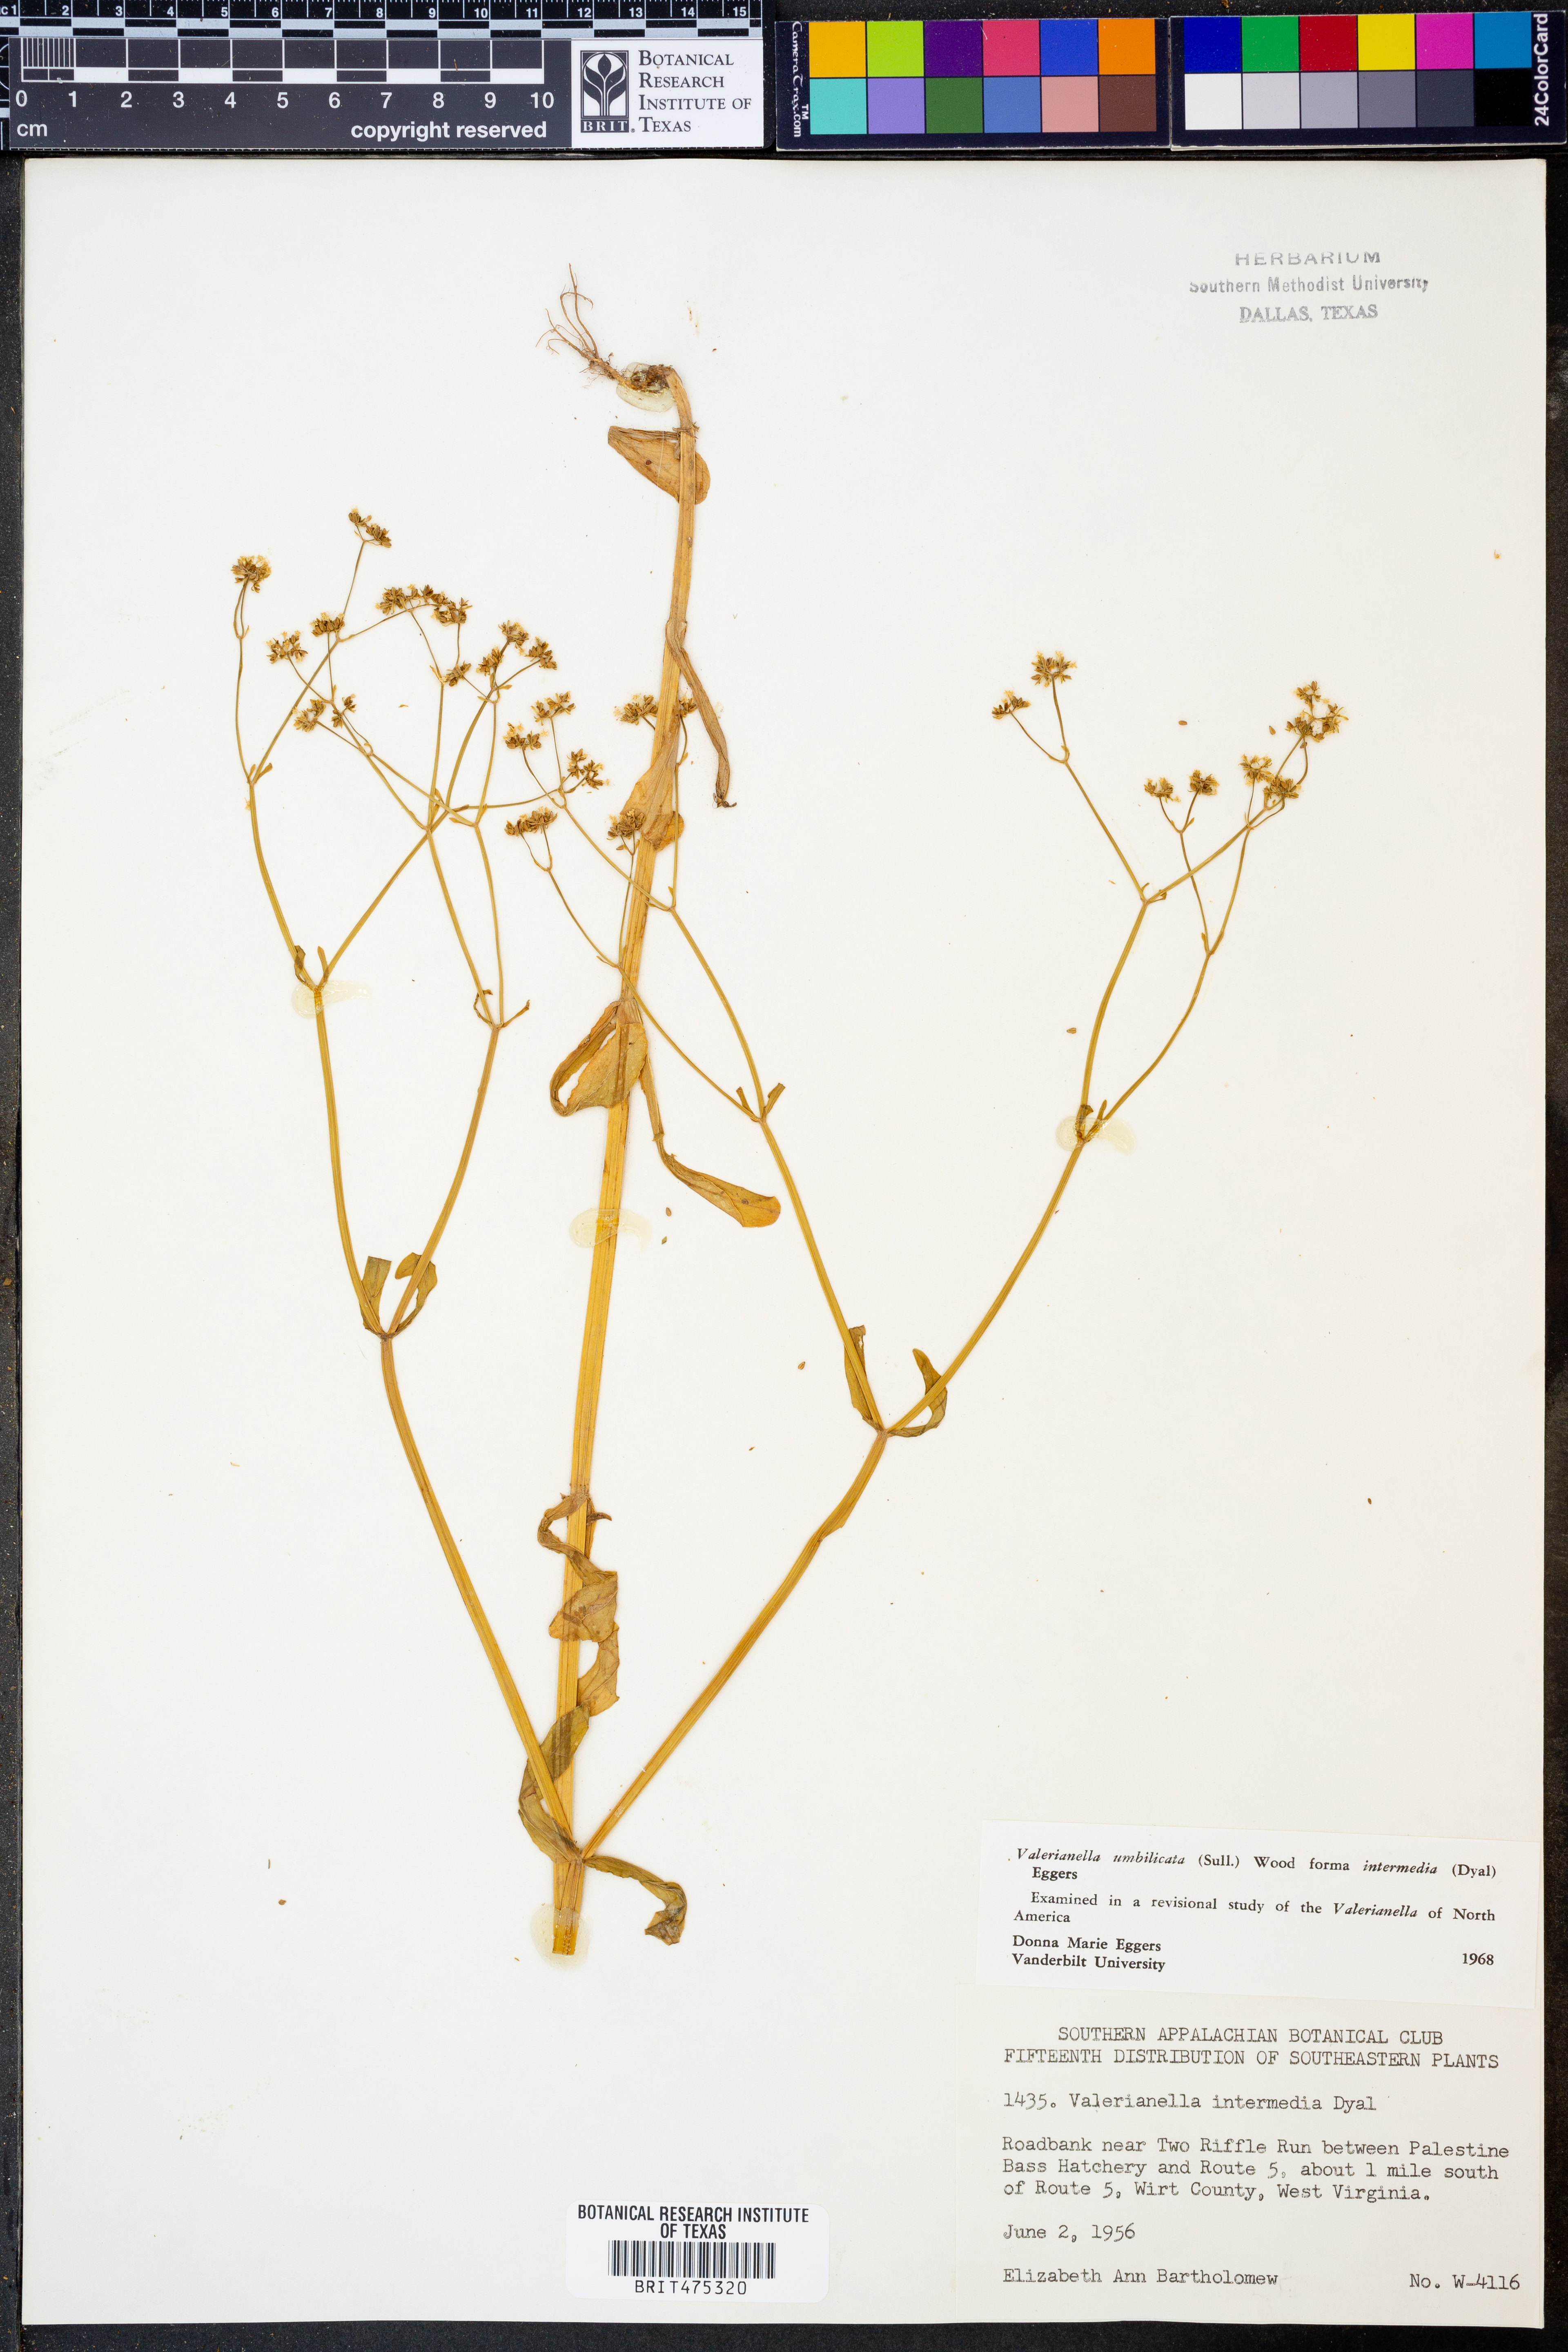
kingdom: Plantae
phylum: Tracheophyta
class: Magnoliopsida
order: Dipsacales
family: Caprifoliaceae
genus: Valerianella
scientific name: Valerianella umbilicata
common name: Wood's cornsalad
